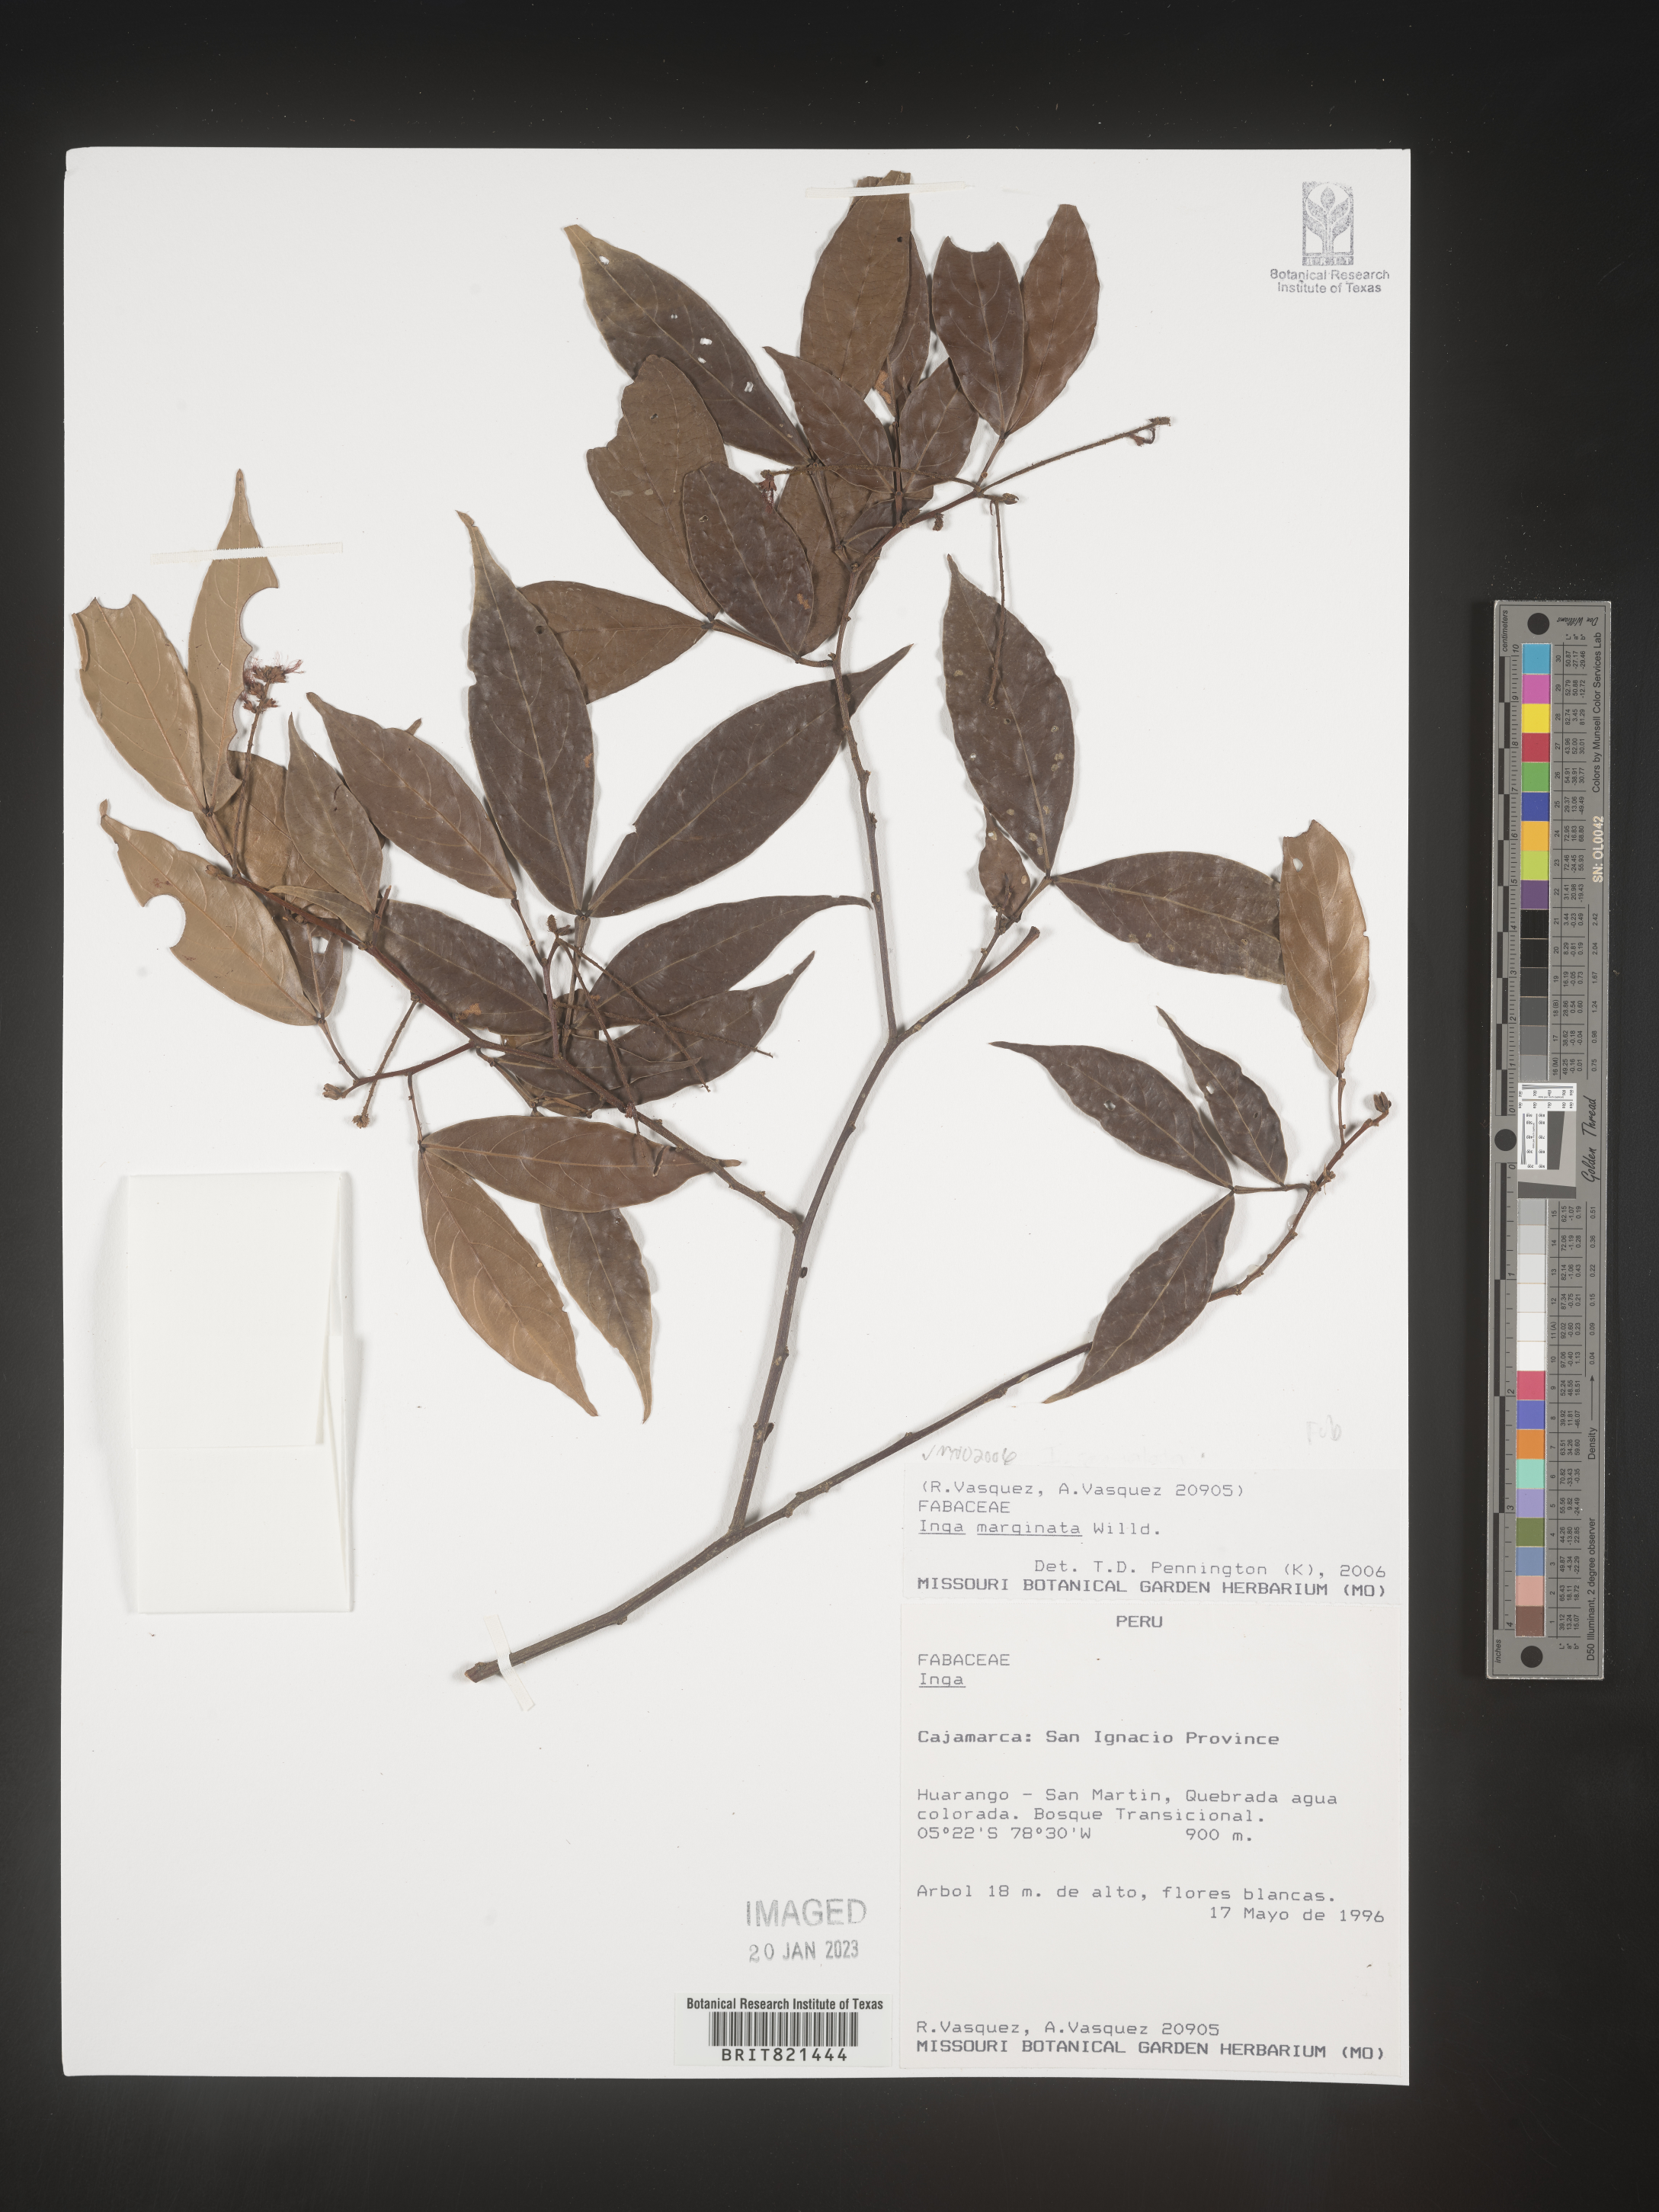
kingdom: Plantae
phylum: Tracheophyta
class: Magnoliopsida
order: Fabales
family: Fabaceae
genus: Inga
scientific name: Inga
